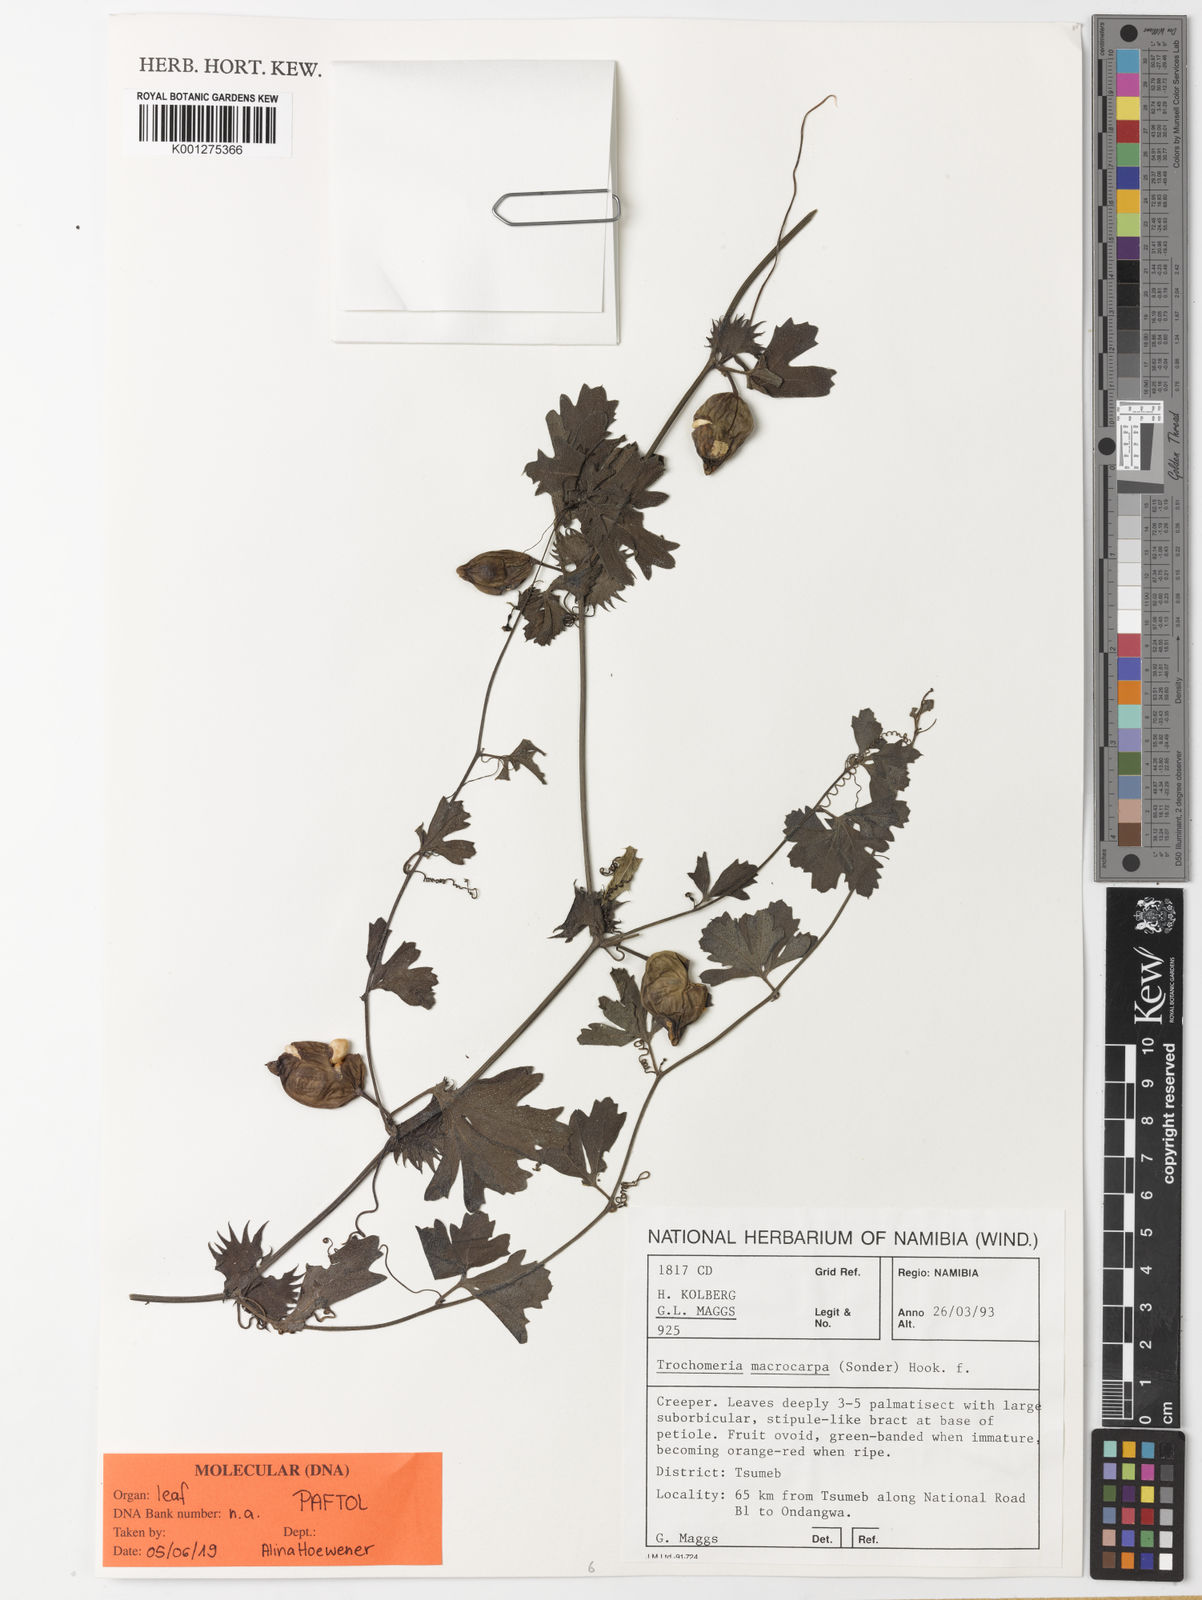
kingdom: Plantae
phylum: Tracheophyta
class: Magnoliopsida
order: Cucurbitales
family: Cucurbitaceae
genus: Trochomeria
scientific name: Trochomeria
